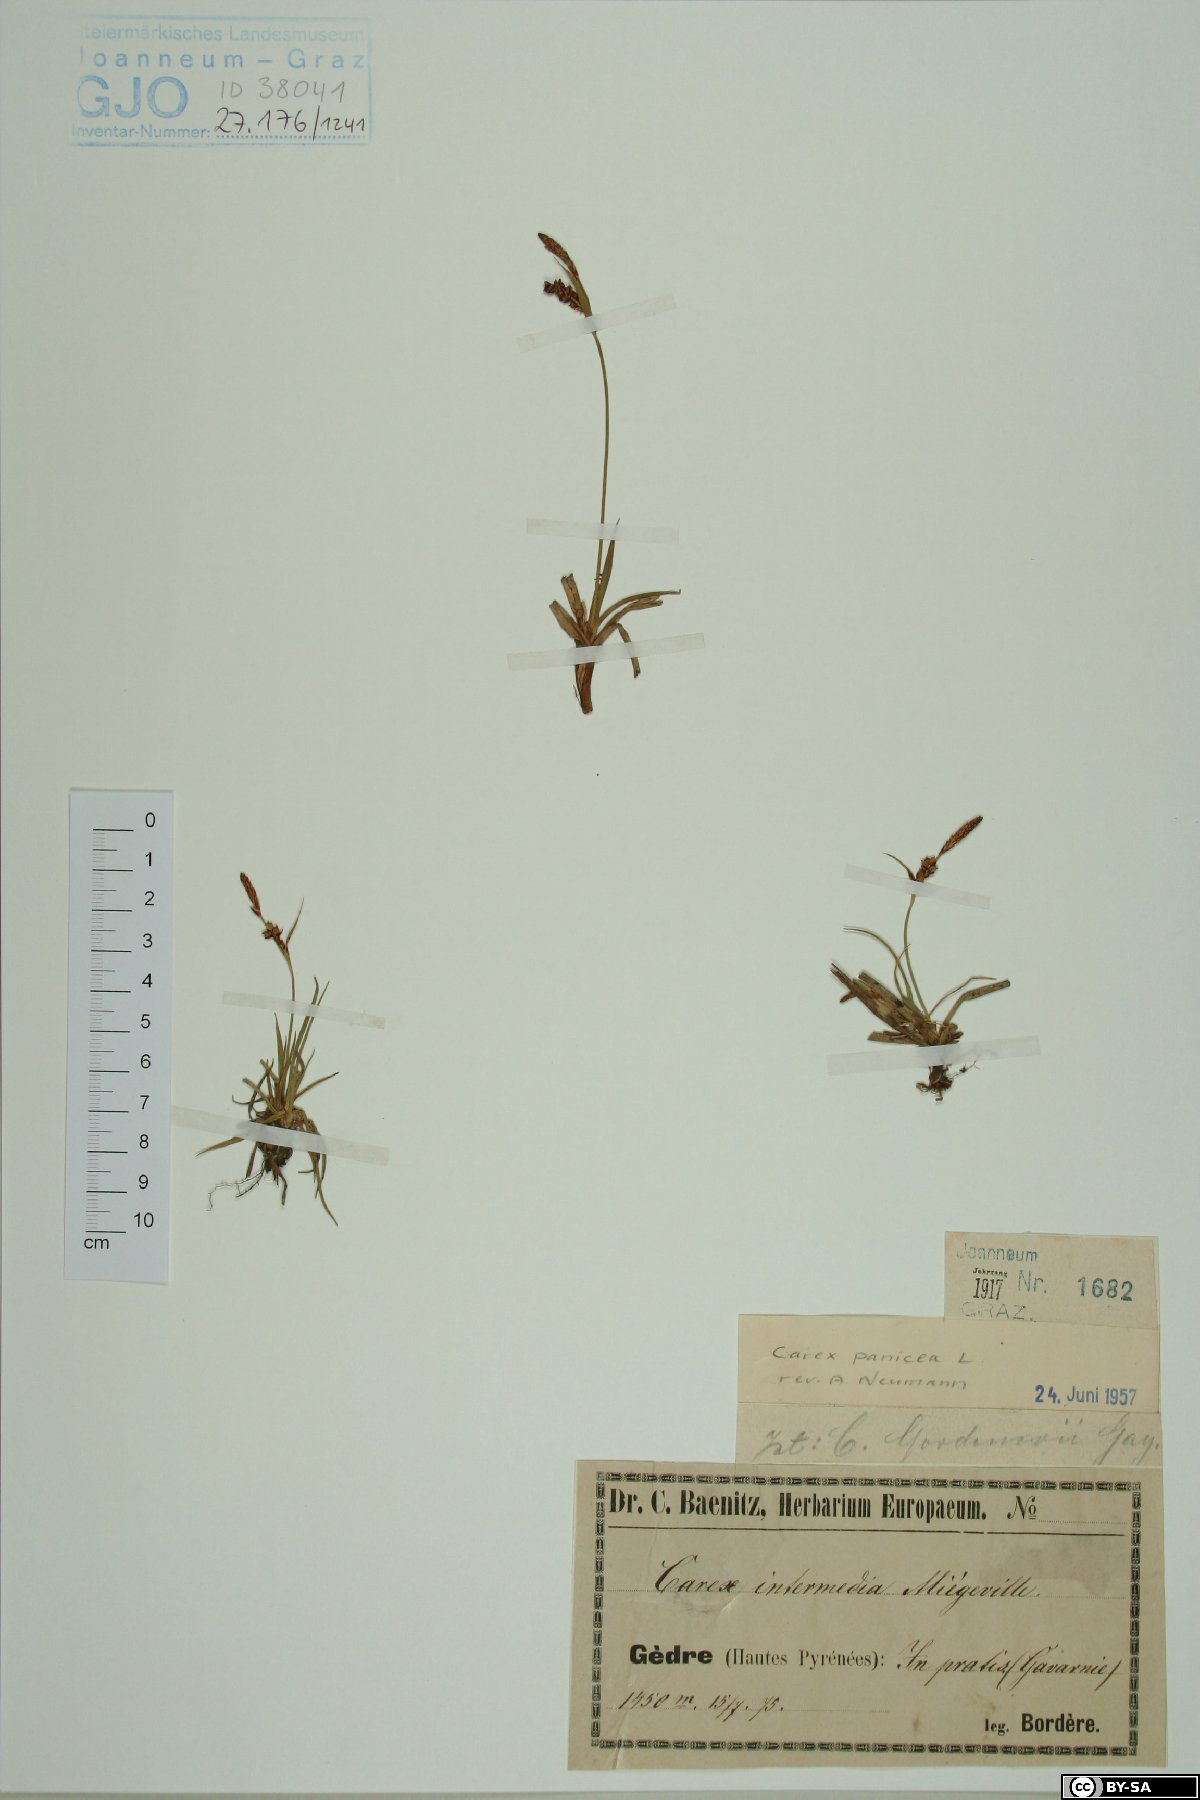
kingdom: Plantae
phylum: Tracheophyta
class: Liliopsida
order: Poales
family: Cyperaceae
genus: Carex
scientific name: Carex panicea
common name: Carnation sedge
